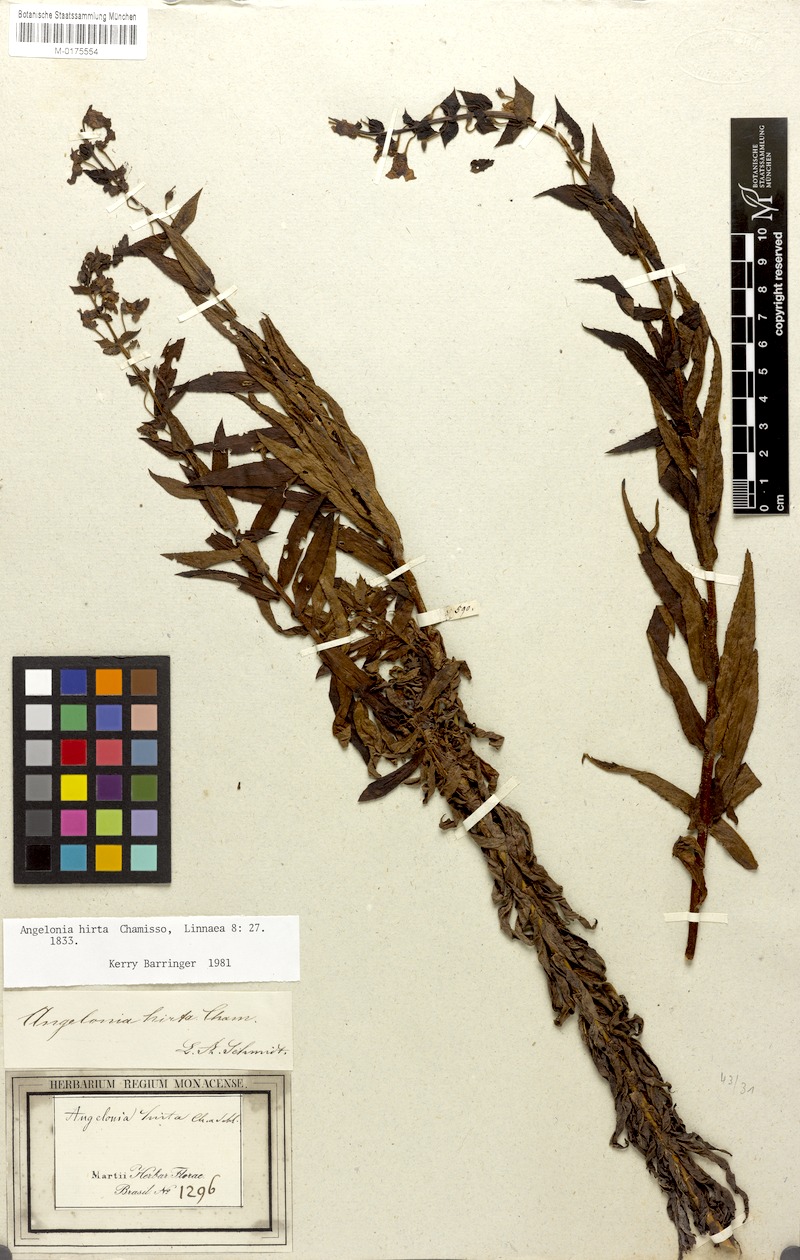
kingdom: Plantae
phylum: Tracheophyta
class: Magnoliopsida
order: Lamiales
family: Plantaginaceae
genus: Angelonia
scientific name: Angelonia salicariifolia
